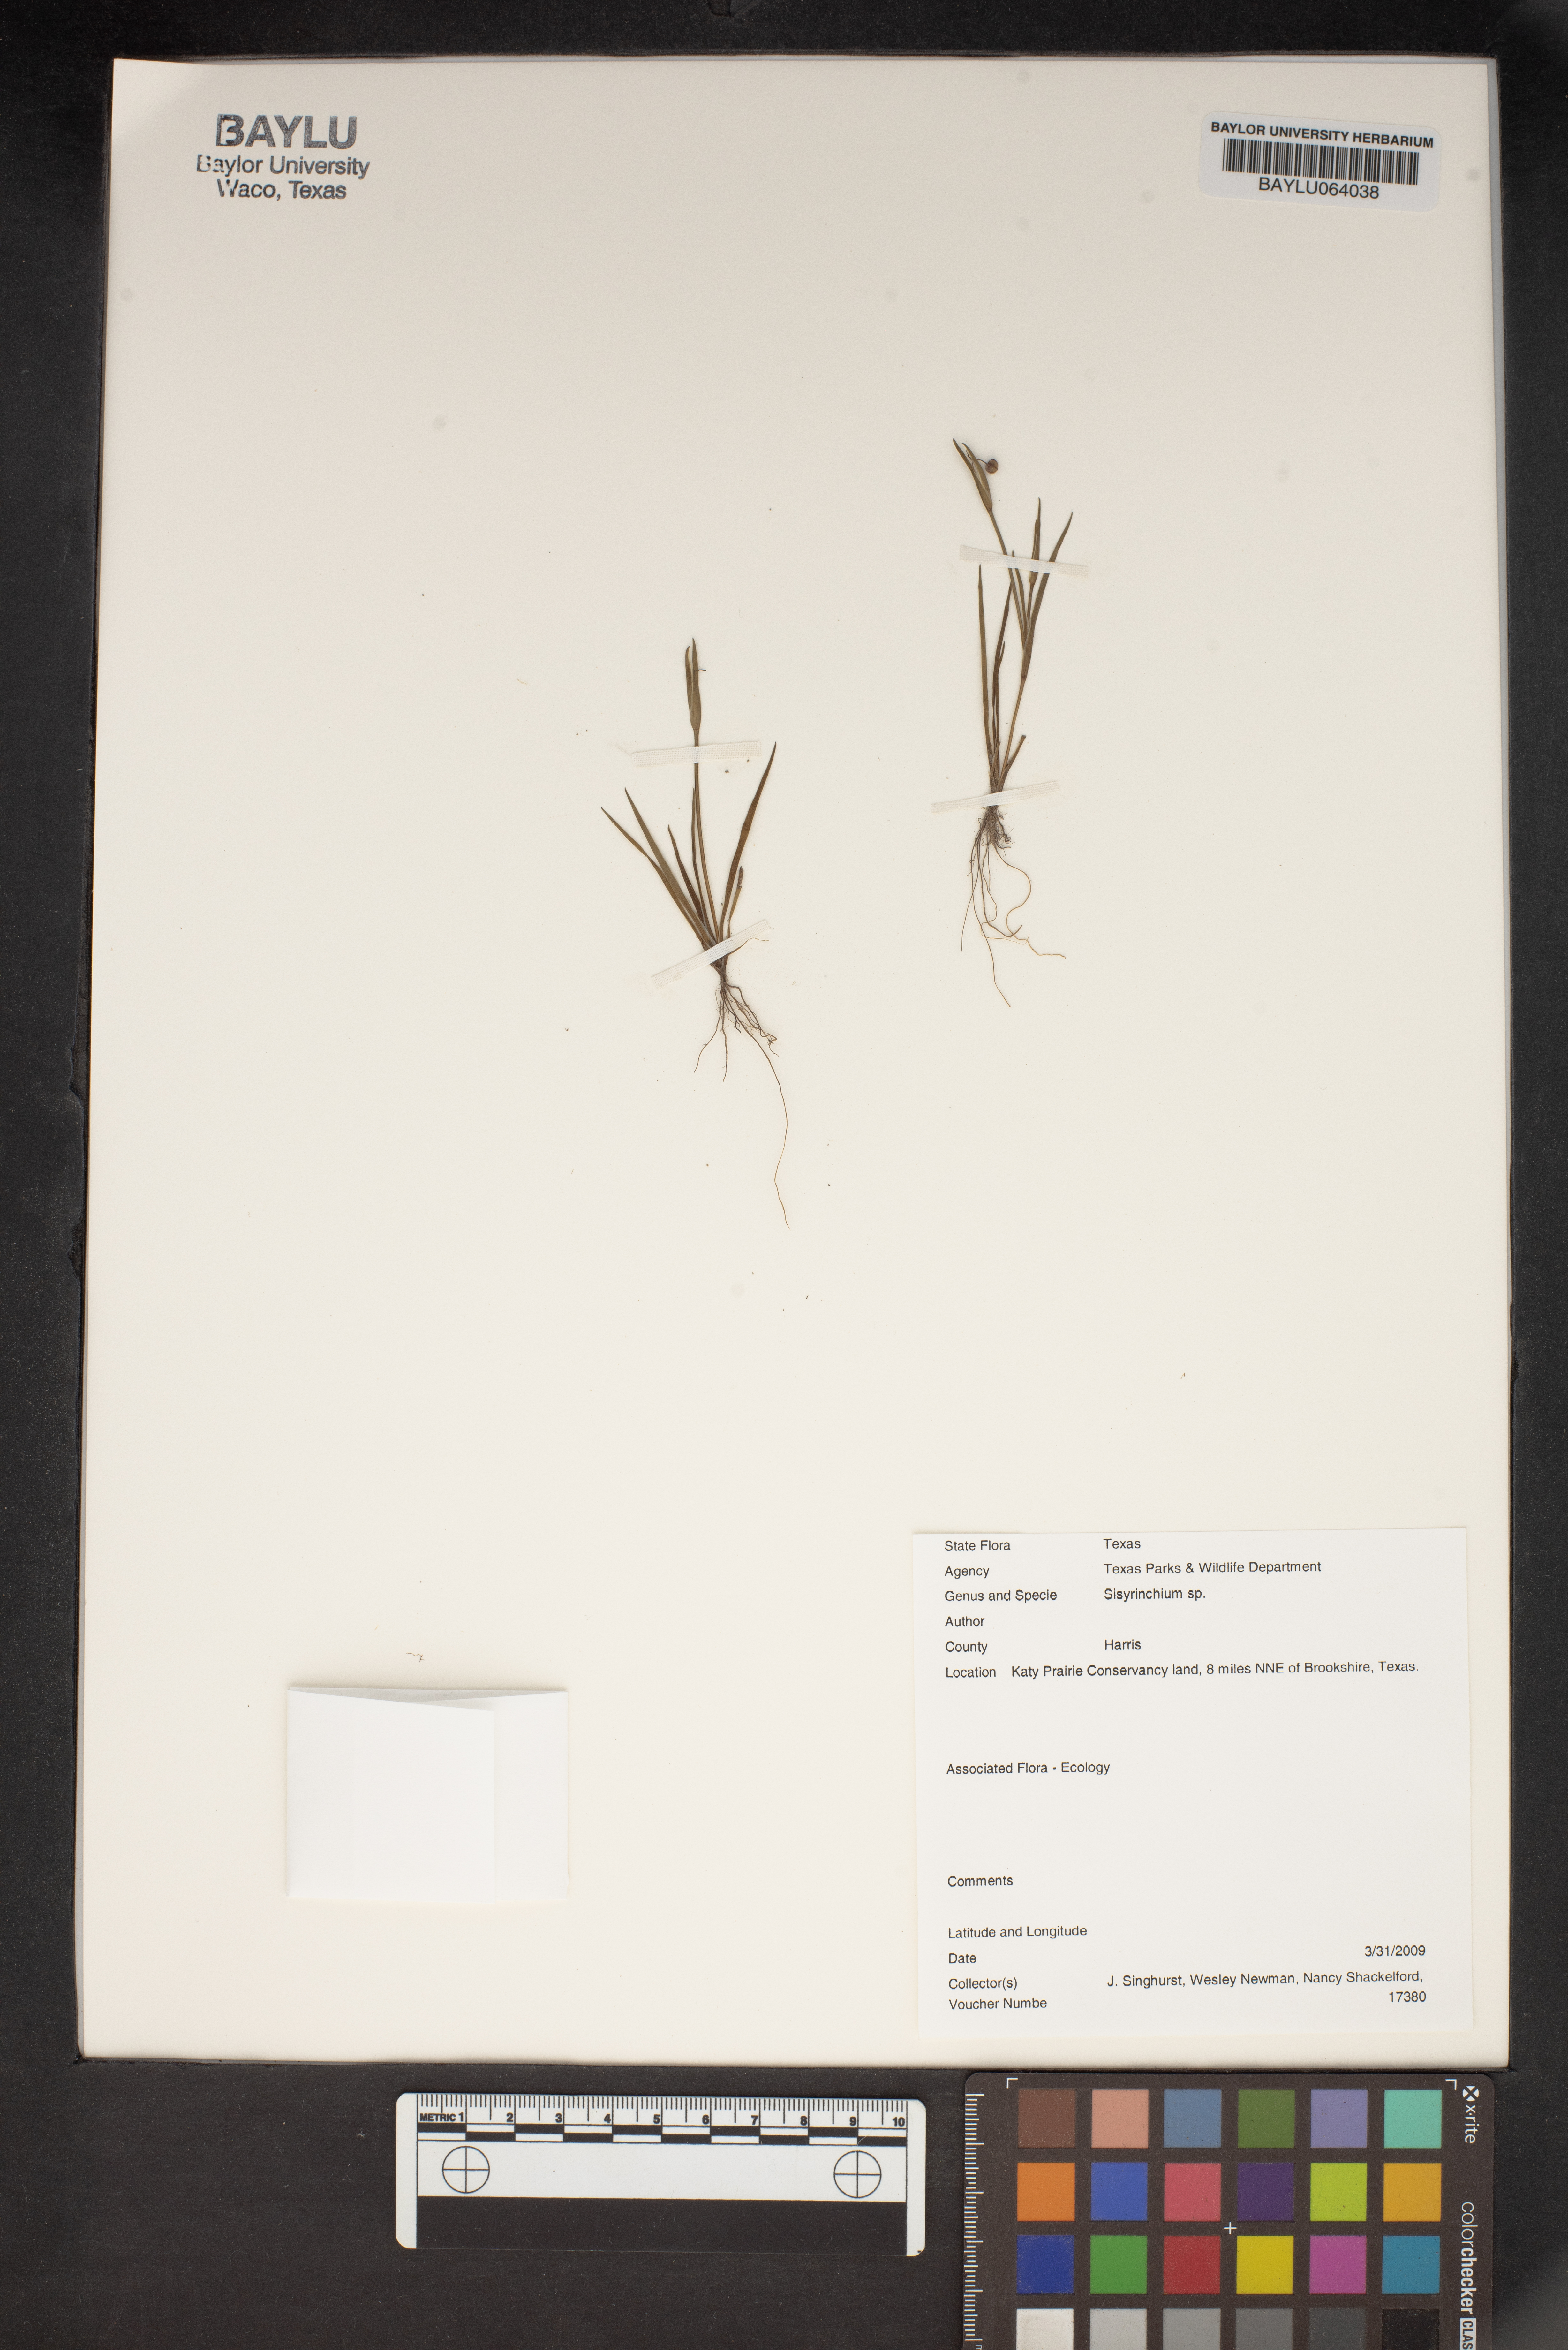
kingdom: Plantae
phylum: Tracheophyta
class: Liliopsida
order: Asparagales
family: Iridaceae
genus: Sisyrinchium
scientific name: Sisyrinchium
